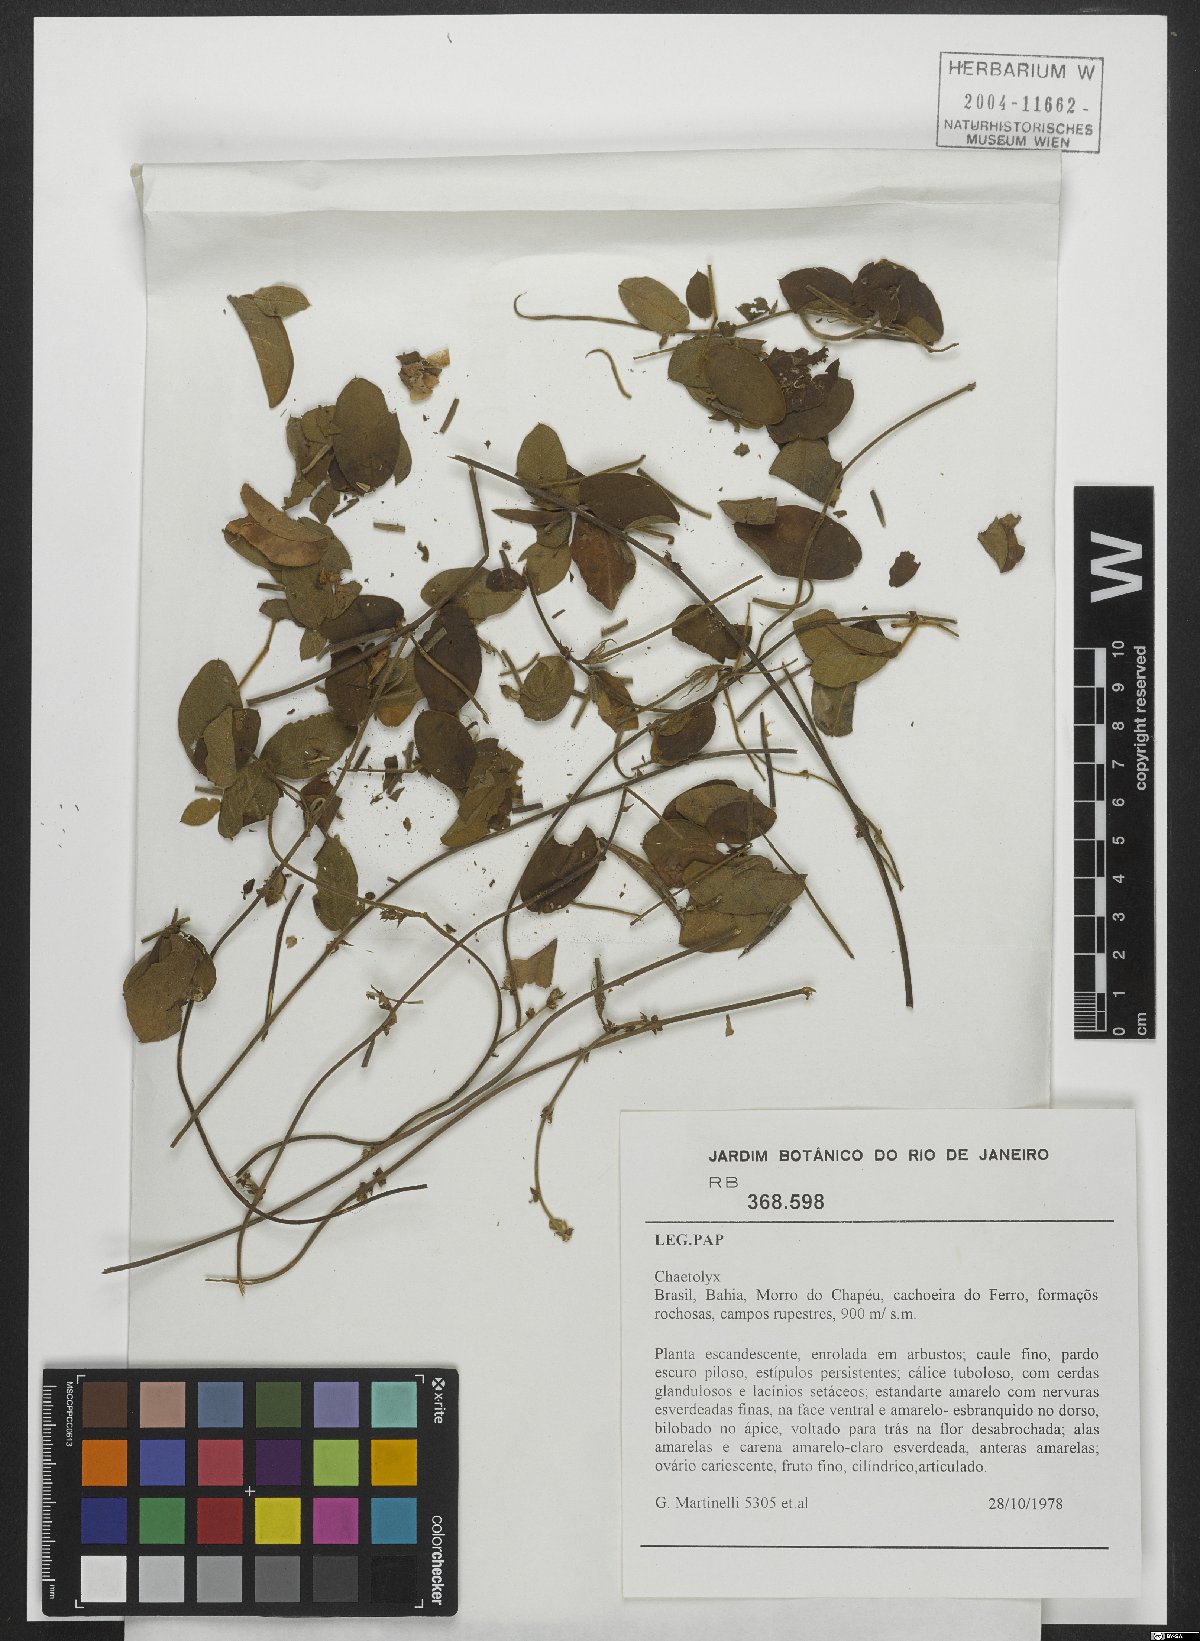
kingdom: Plantae
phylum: Tracheophyta
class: Magnoliopsida
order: Fabales
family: Fabaceae
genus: Nissolia
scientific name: Nissolia
